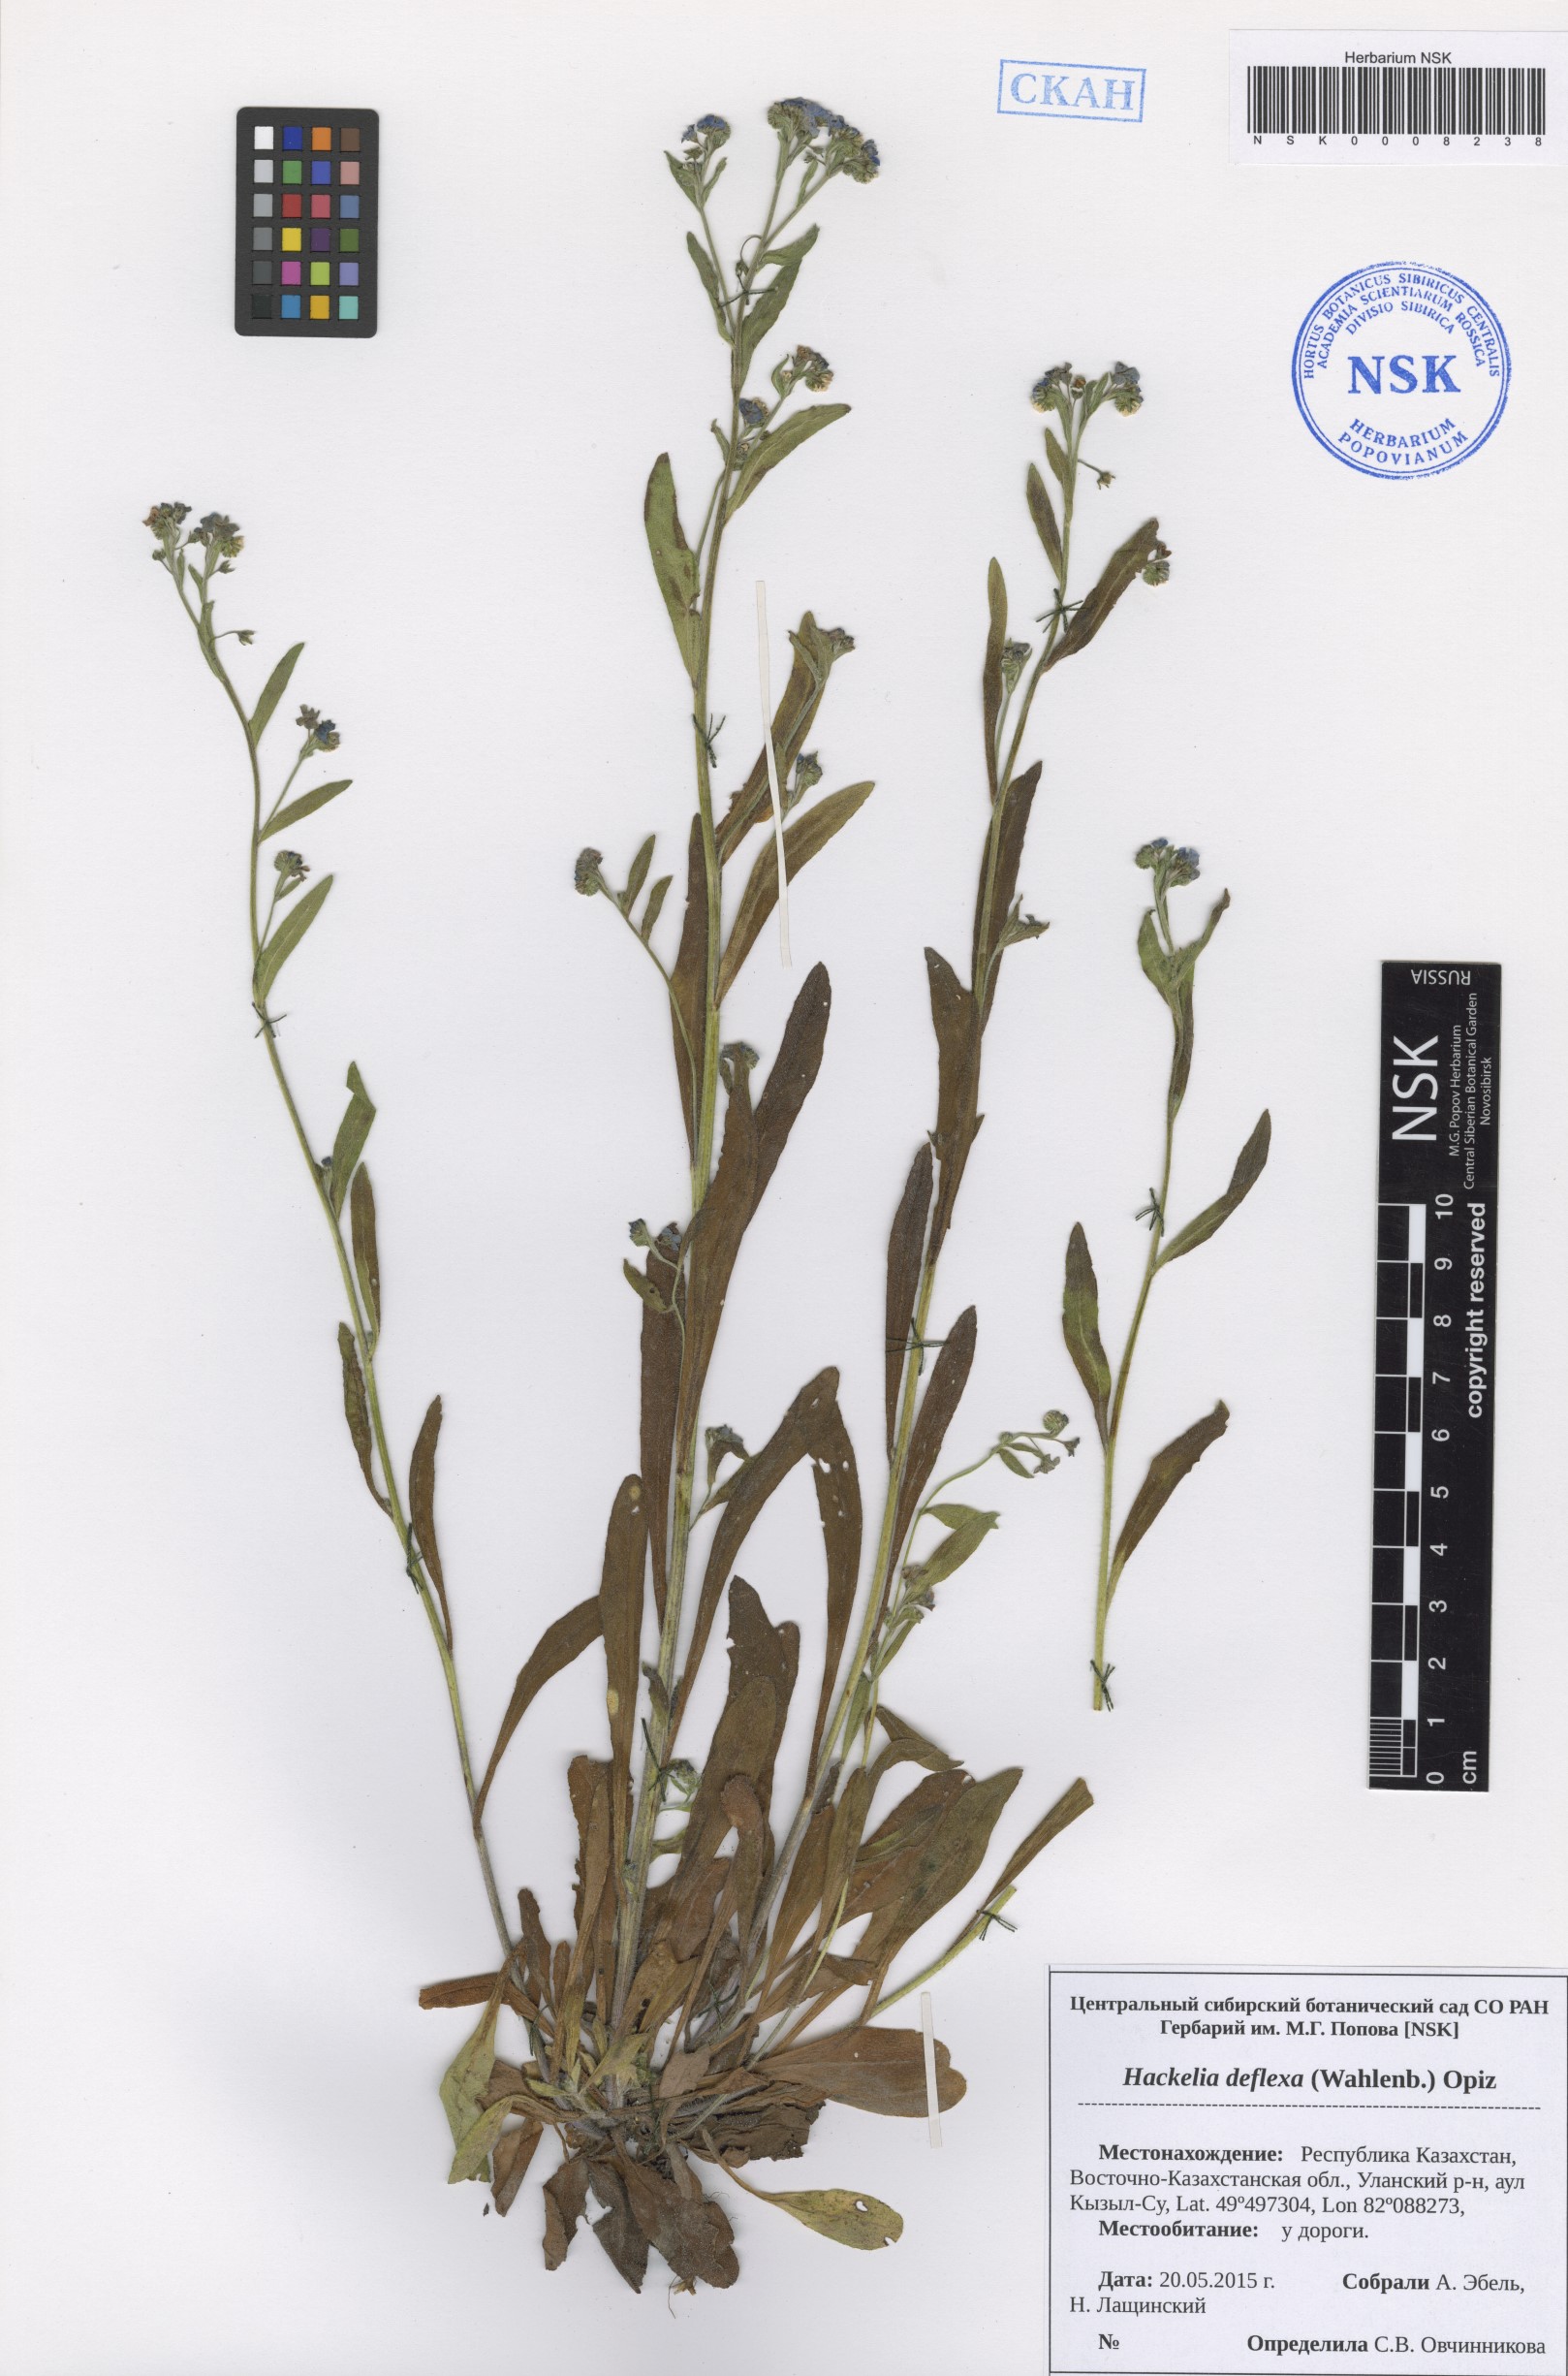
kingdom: Plantae
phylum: Tracheophyta
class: Magnoliopsida
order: Boraginales
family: Boraginaceae
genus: Hackelia
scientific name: Hackelia deflexa
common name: Nodding stickseed
